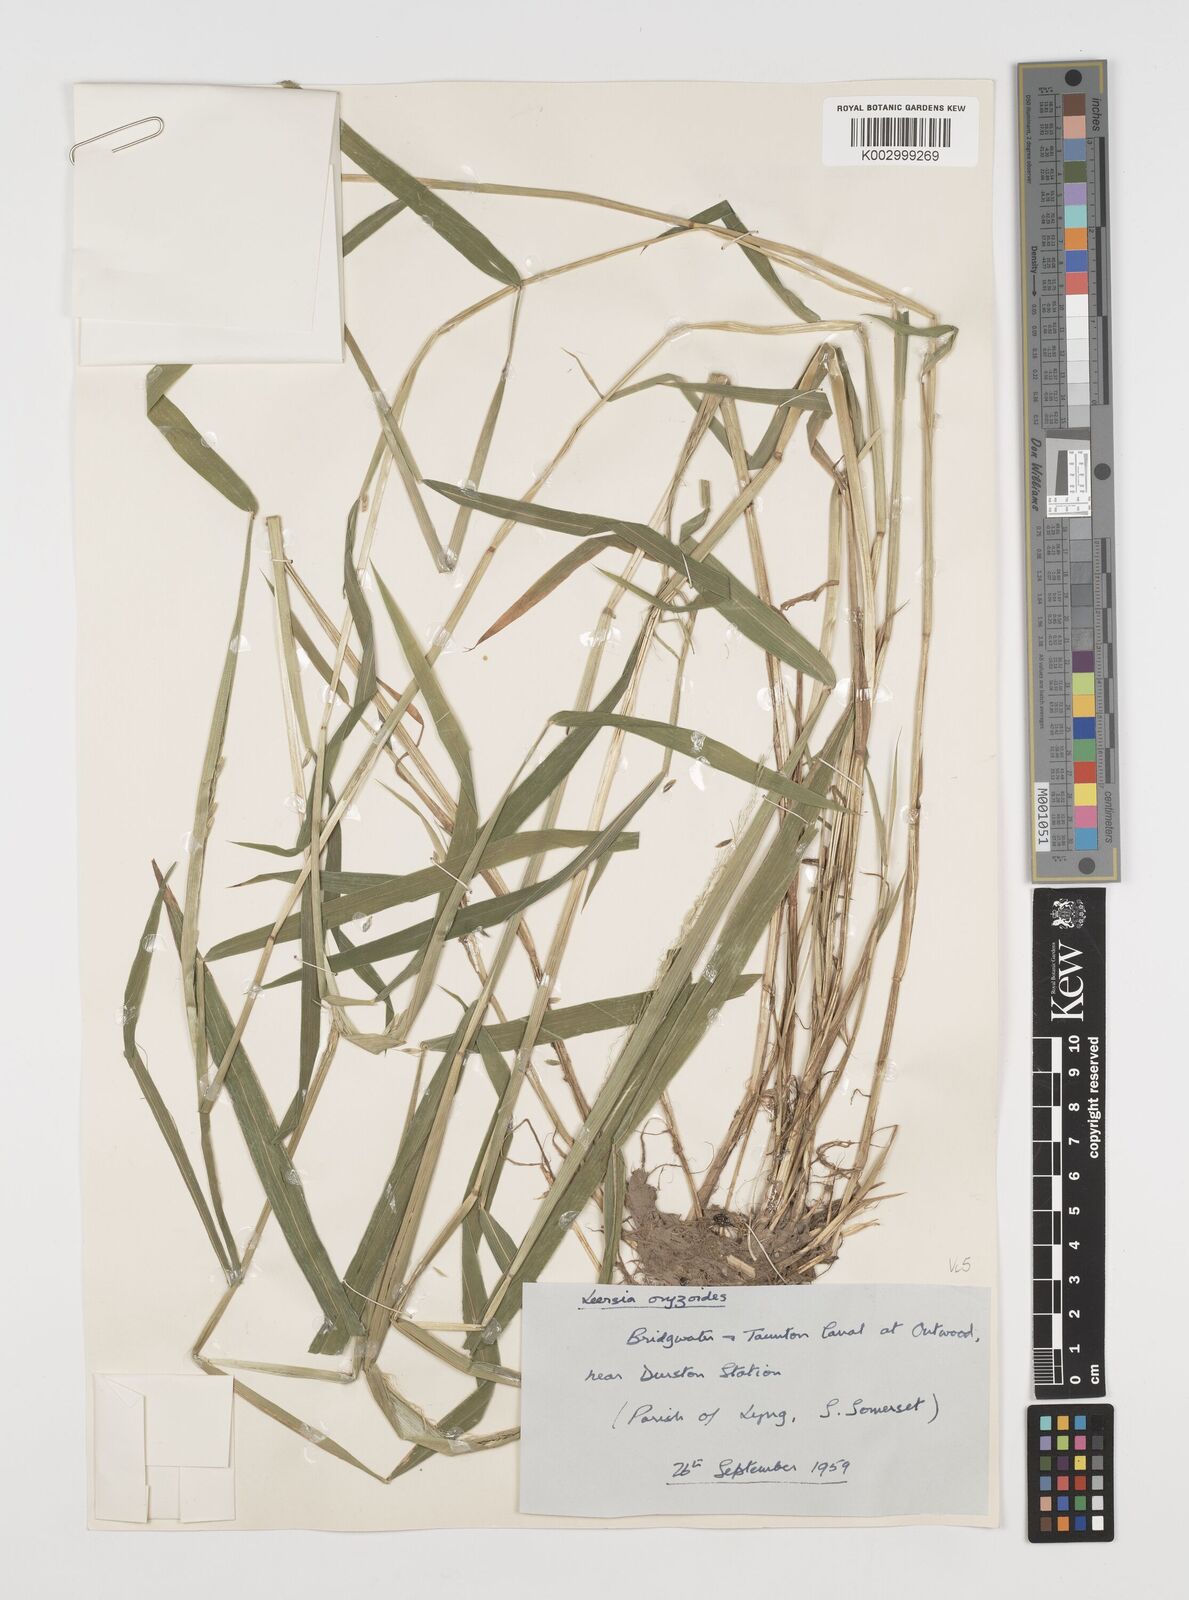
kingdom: Plantae
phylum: Tracheophyta
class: Liliopsida
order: Poales
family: Poaceae
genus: Leersia
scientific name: Leersia oryzoides
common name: Cut-grass
